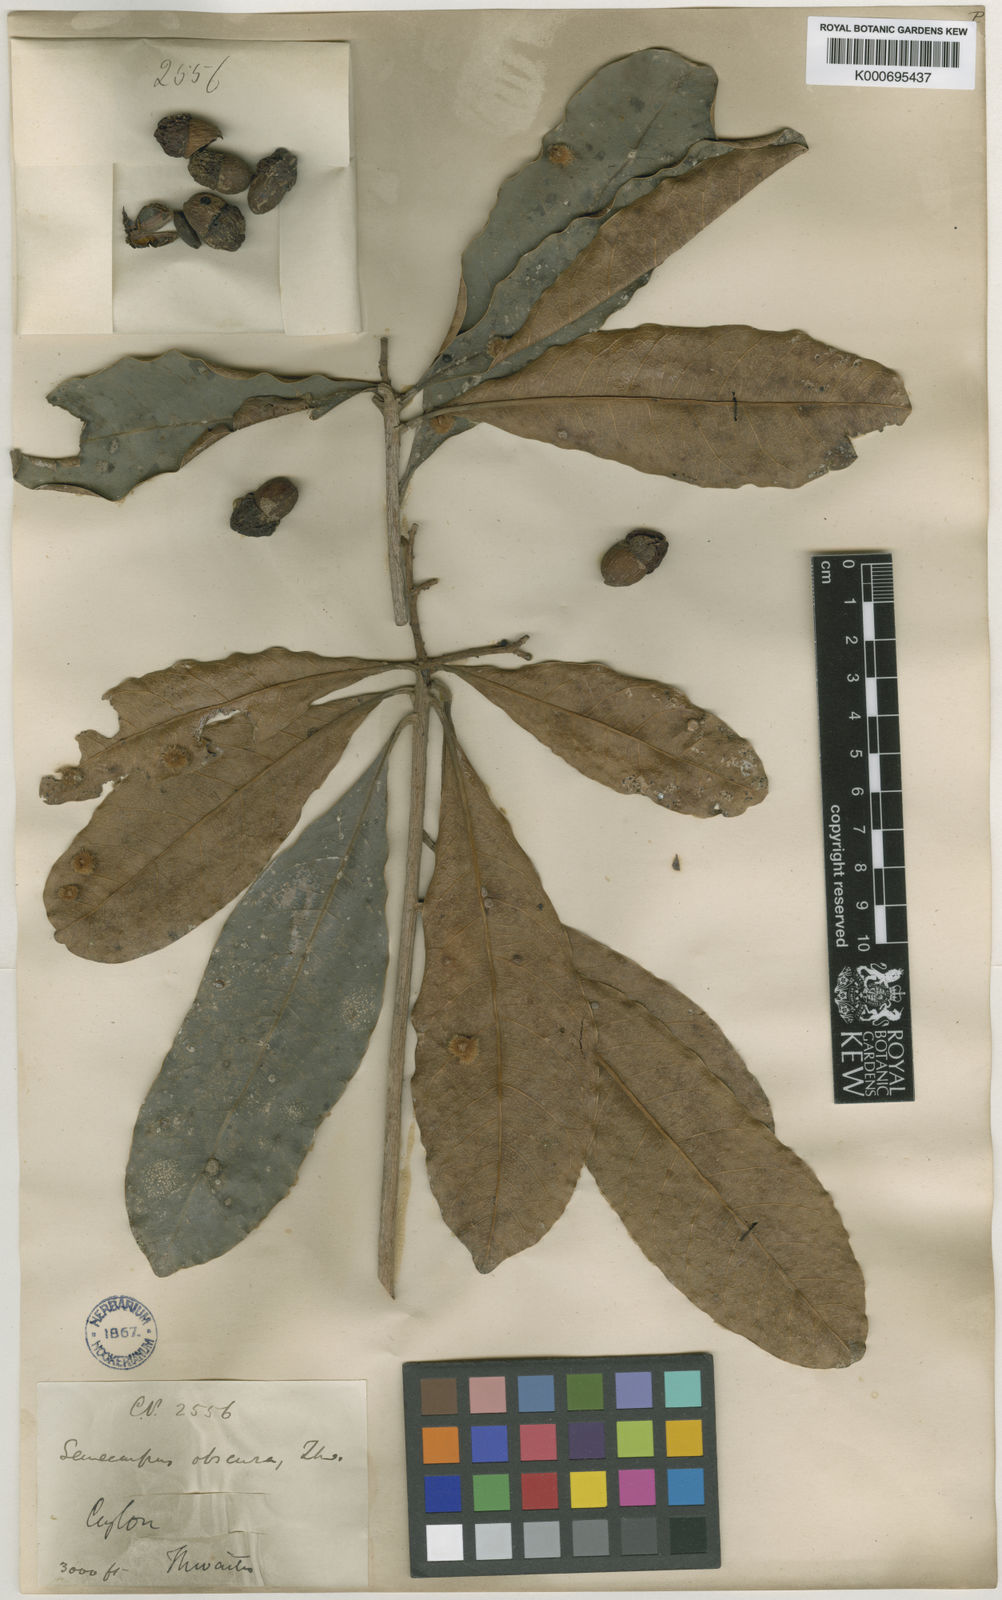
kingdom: Plantae
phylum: Tracheophyta
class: Magnoliopsida
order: Sapindales
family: Anacardiaceae
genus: Semecarpus
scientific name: Semecarpus walkeri
